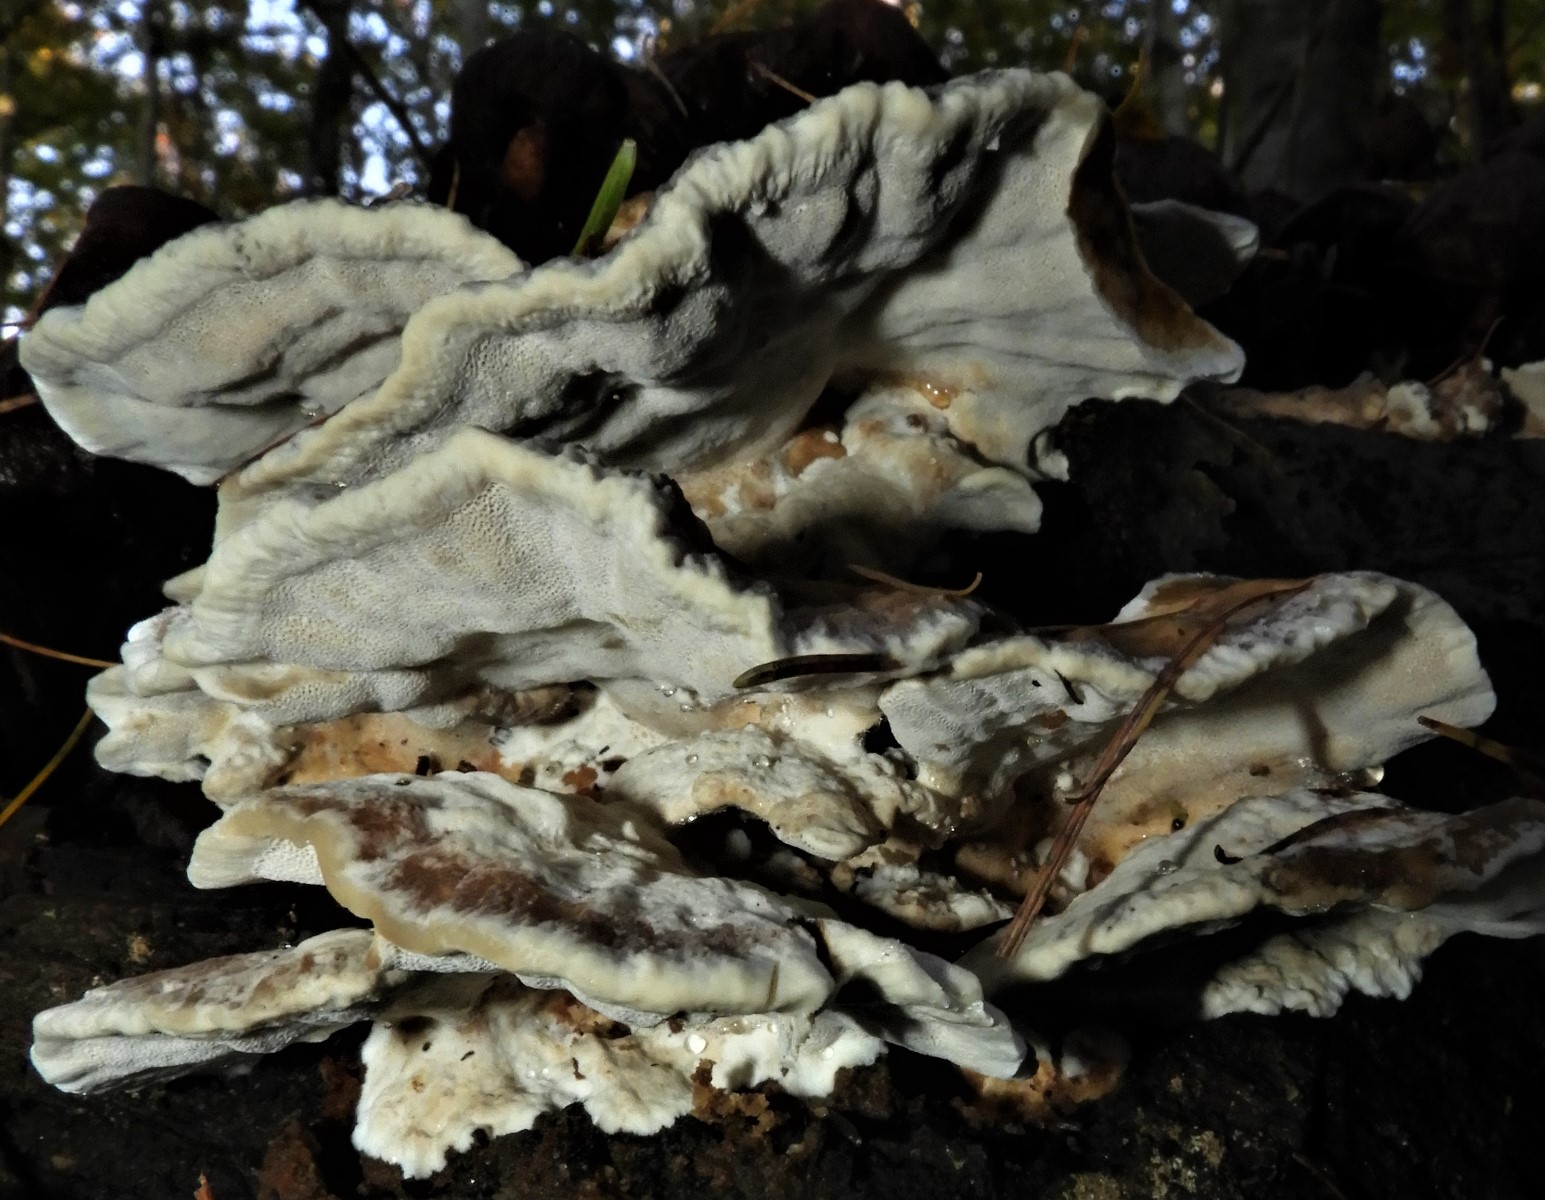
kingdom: Fungi
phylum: Basidiomycota
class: Agaricomycetes
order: Polyporales
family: Phanerochaetaceae
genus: Bjerkandera
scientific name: Bjerkandera adusta
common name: sveden sodporesvamp
